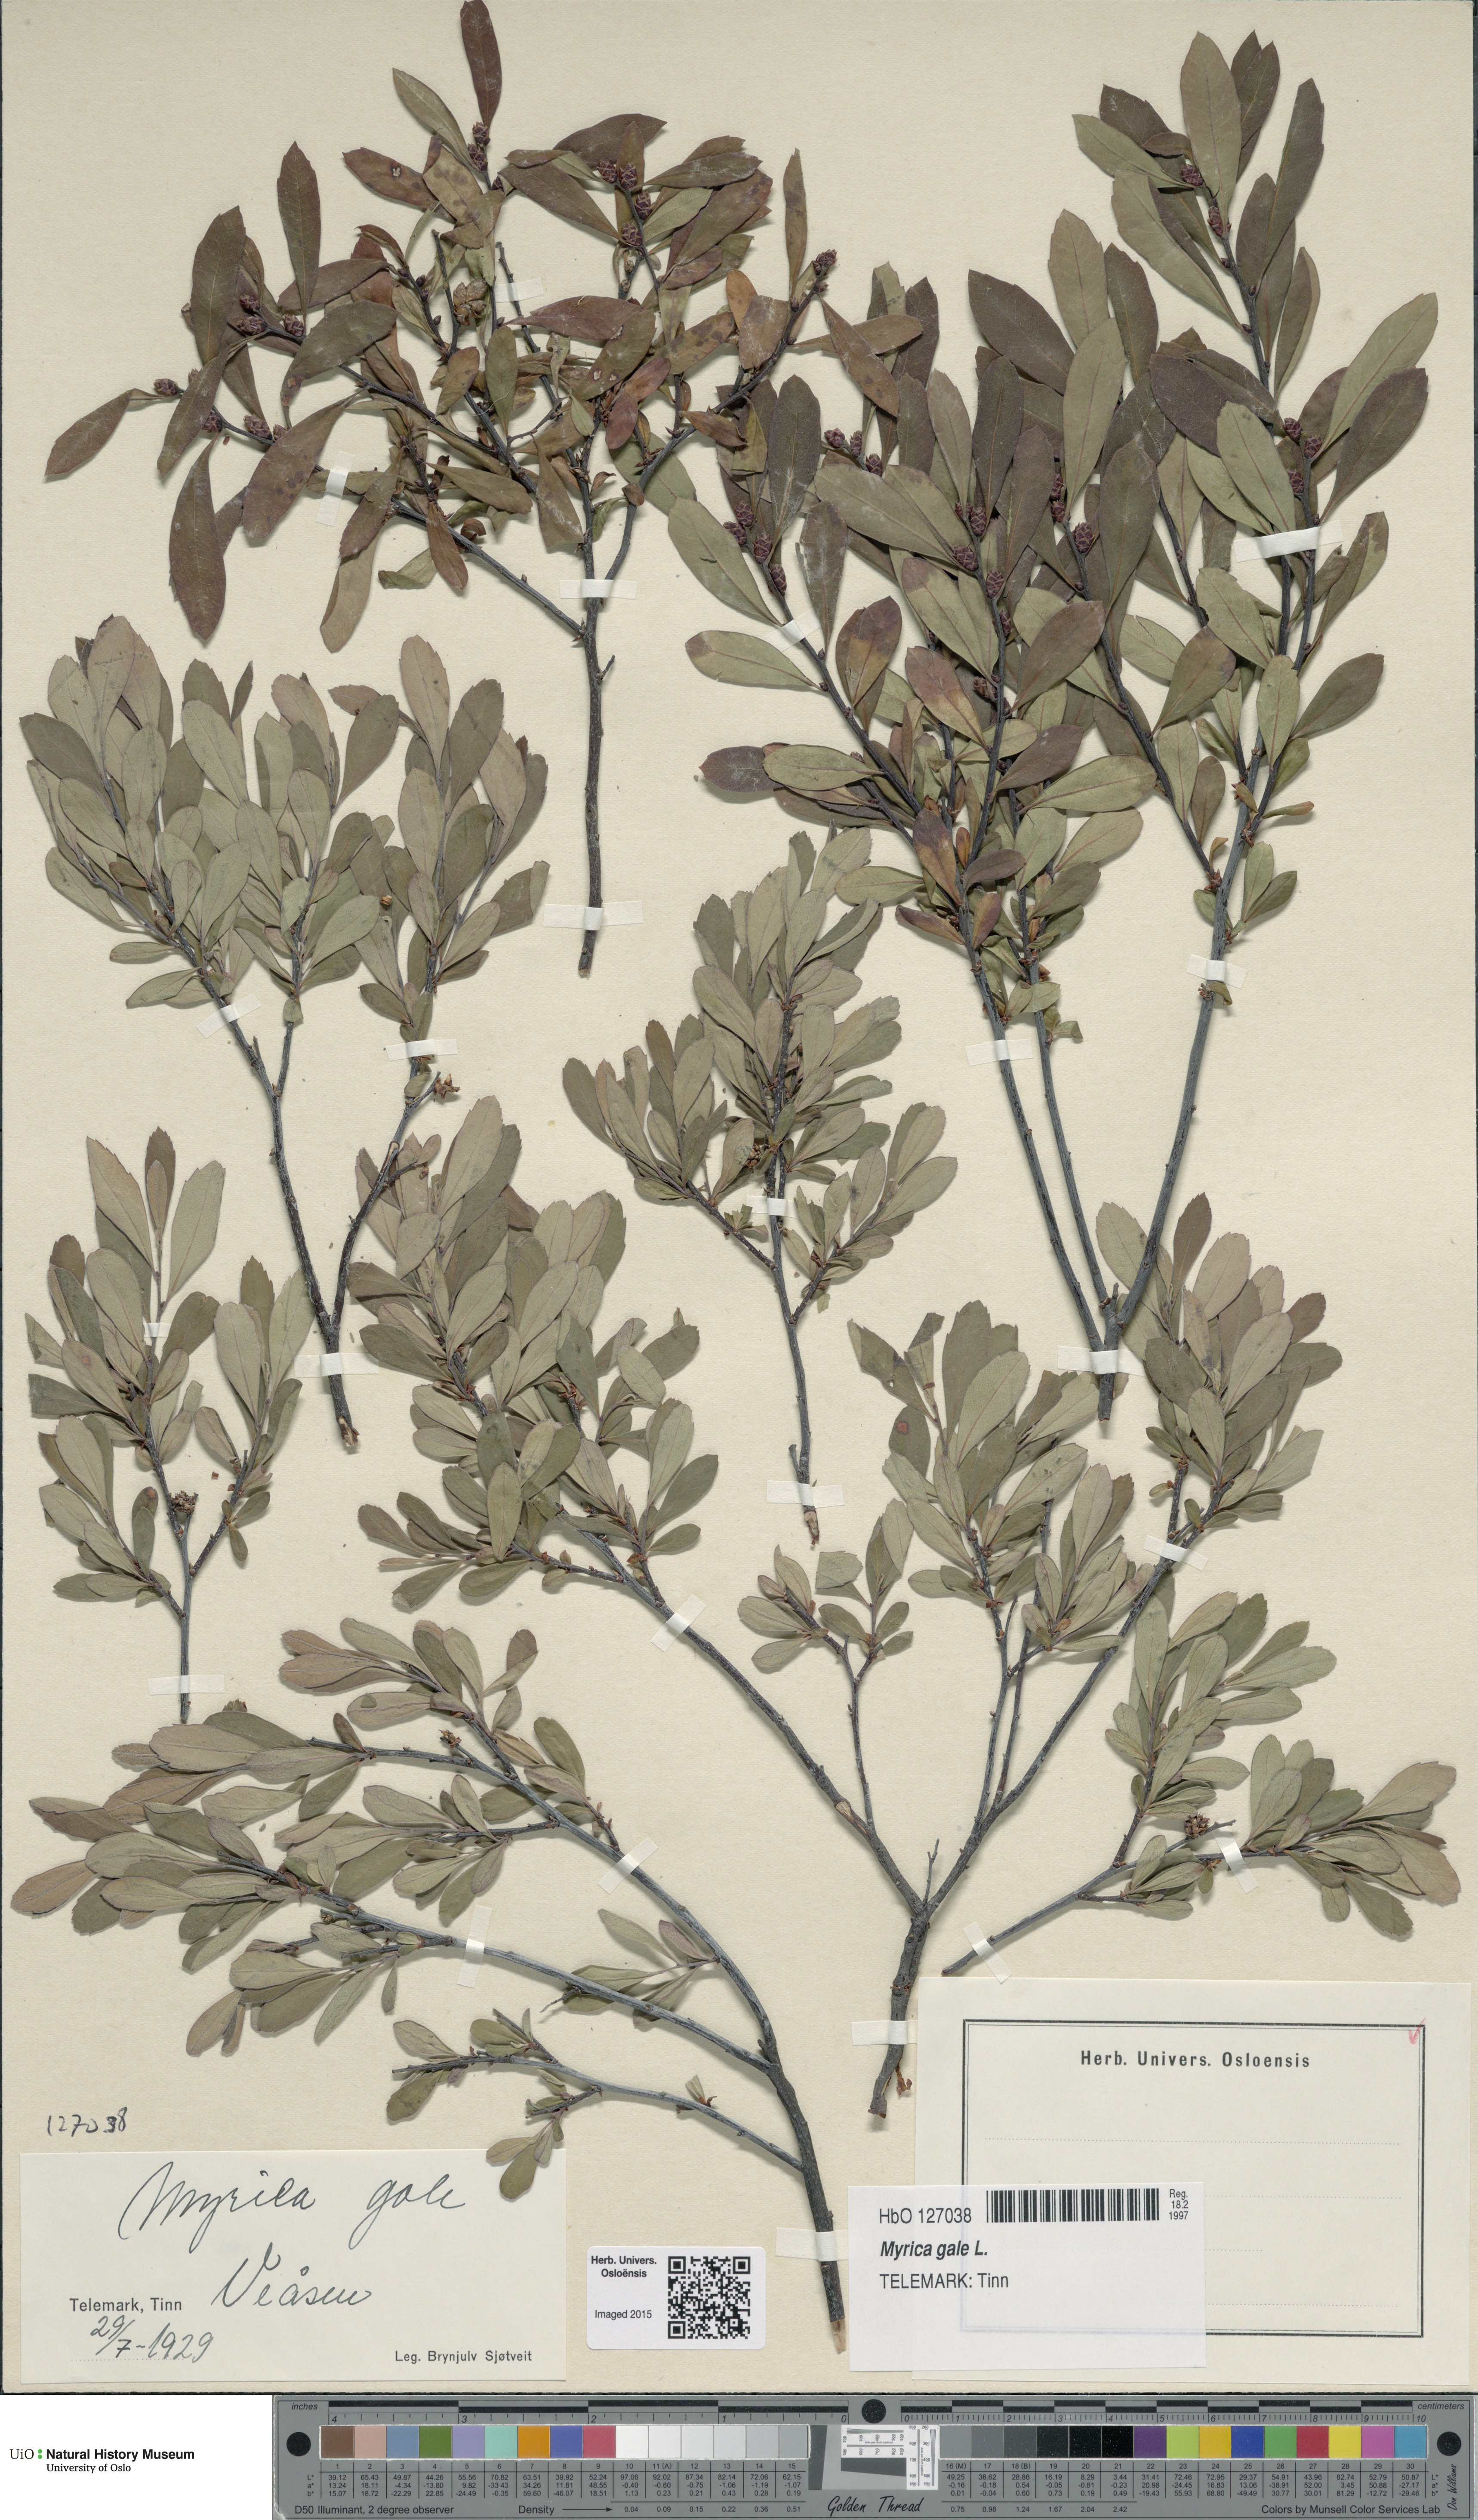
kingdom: Plantae
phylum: Tracheophyta
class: Magnoliopsida
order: Fagales
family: Myricaceae
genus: Myrica
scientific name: Myrica gale
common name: Sweet gale
